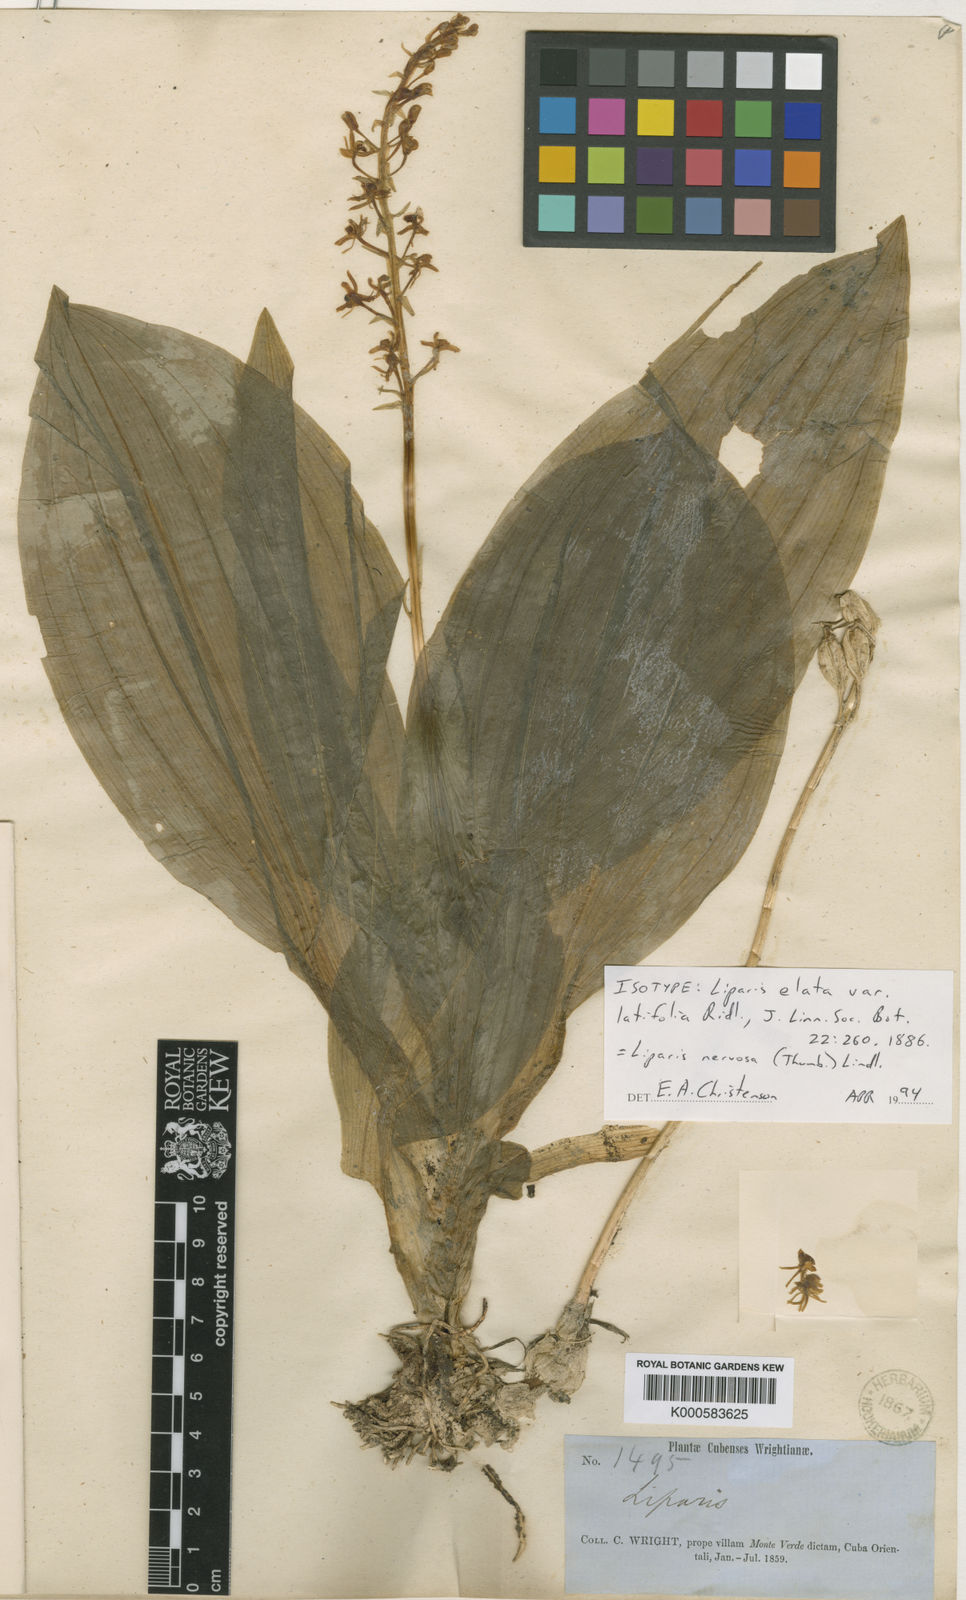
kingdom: Plantae
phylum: Tracheophyta
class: Liliopsida
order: Asparagales
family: Orchidaceae
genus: Liparis
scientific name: Liparis nervosa
